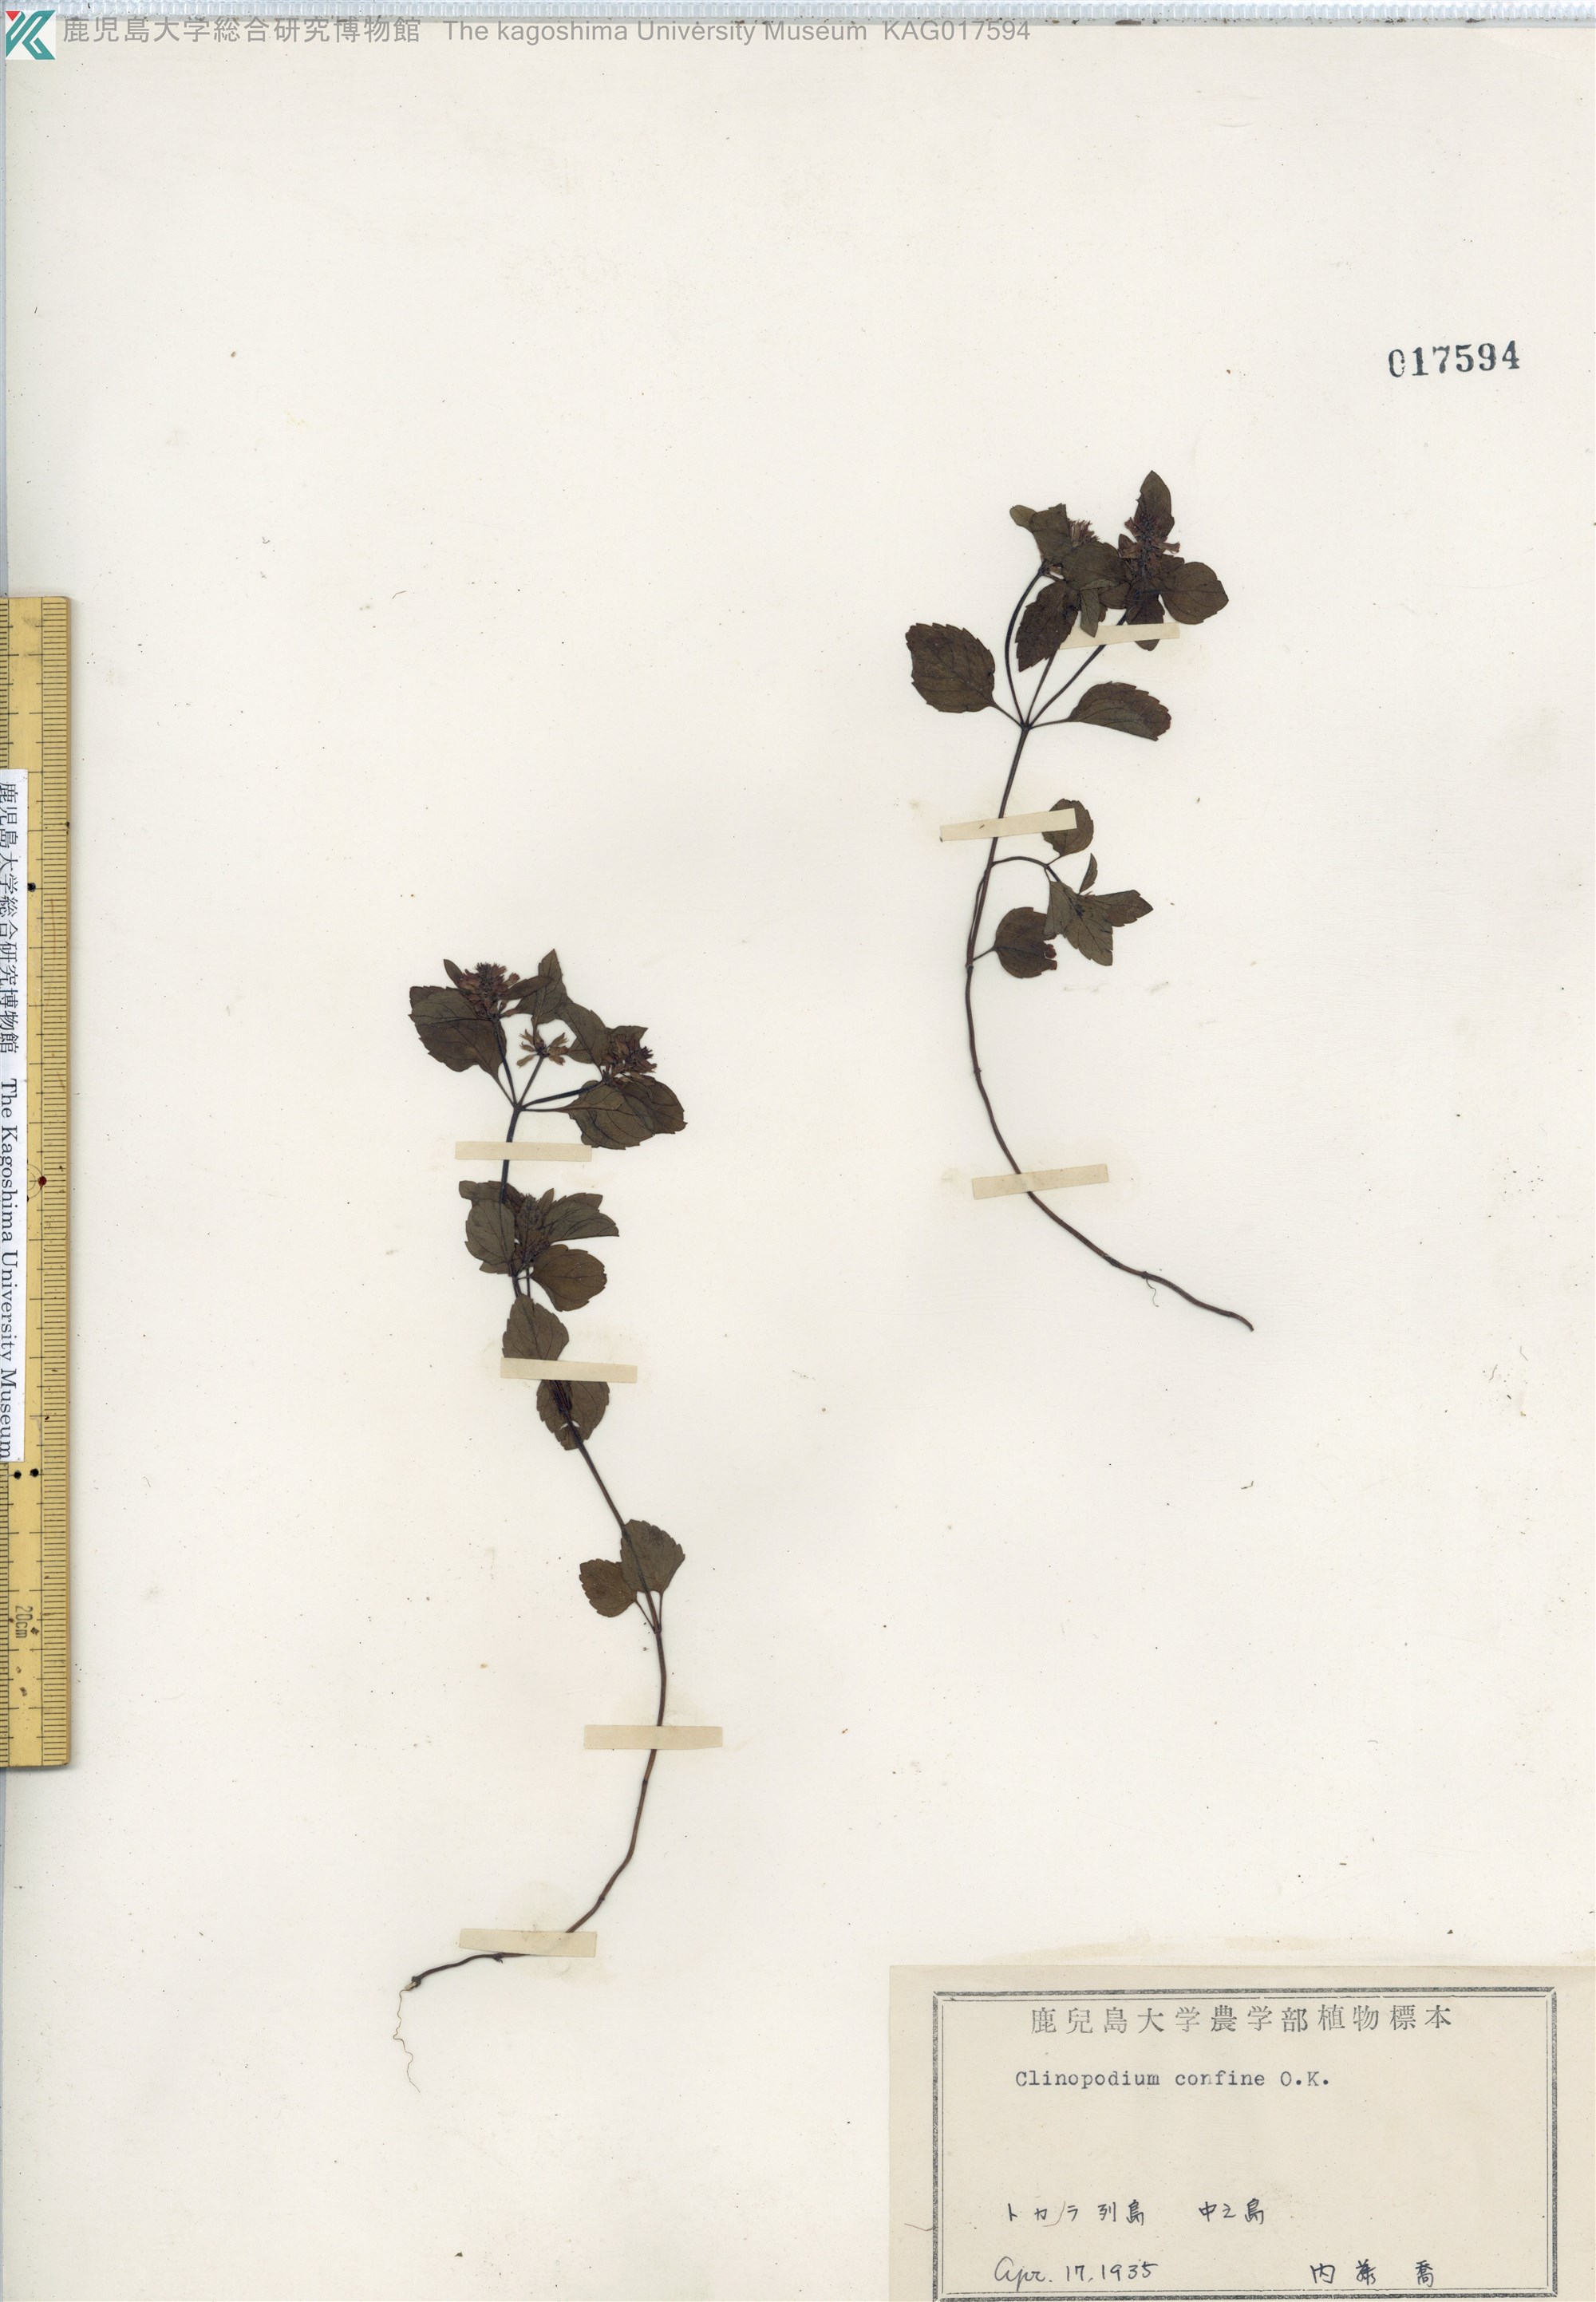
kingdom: Plantae
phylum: Tracheophyta
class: Magnoliopsida
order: Lamiales
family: Lamiaceae
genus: Clinopodium
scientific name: Clinopodium gracile
